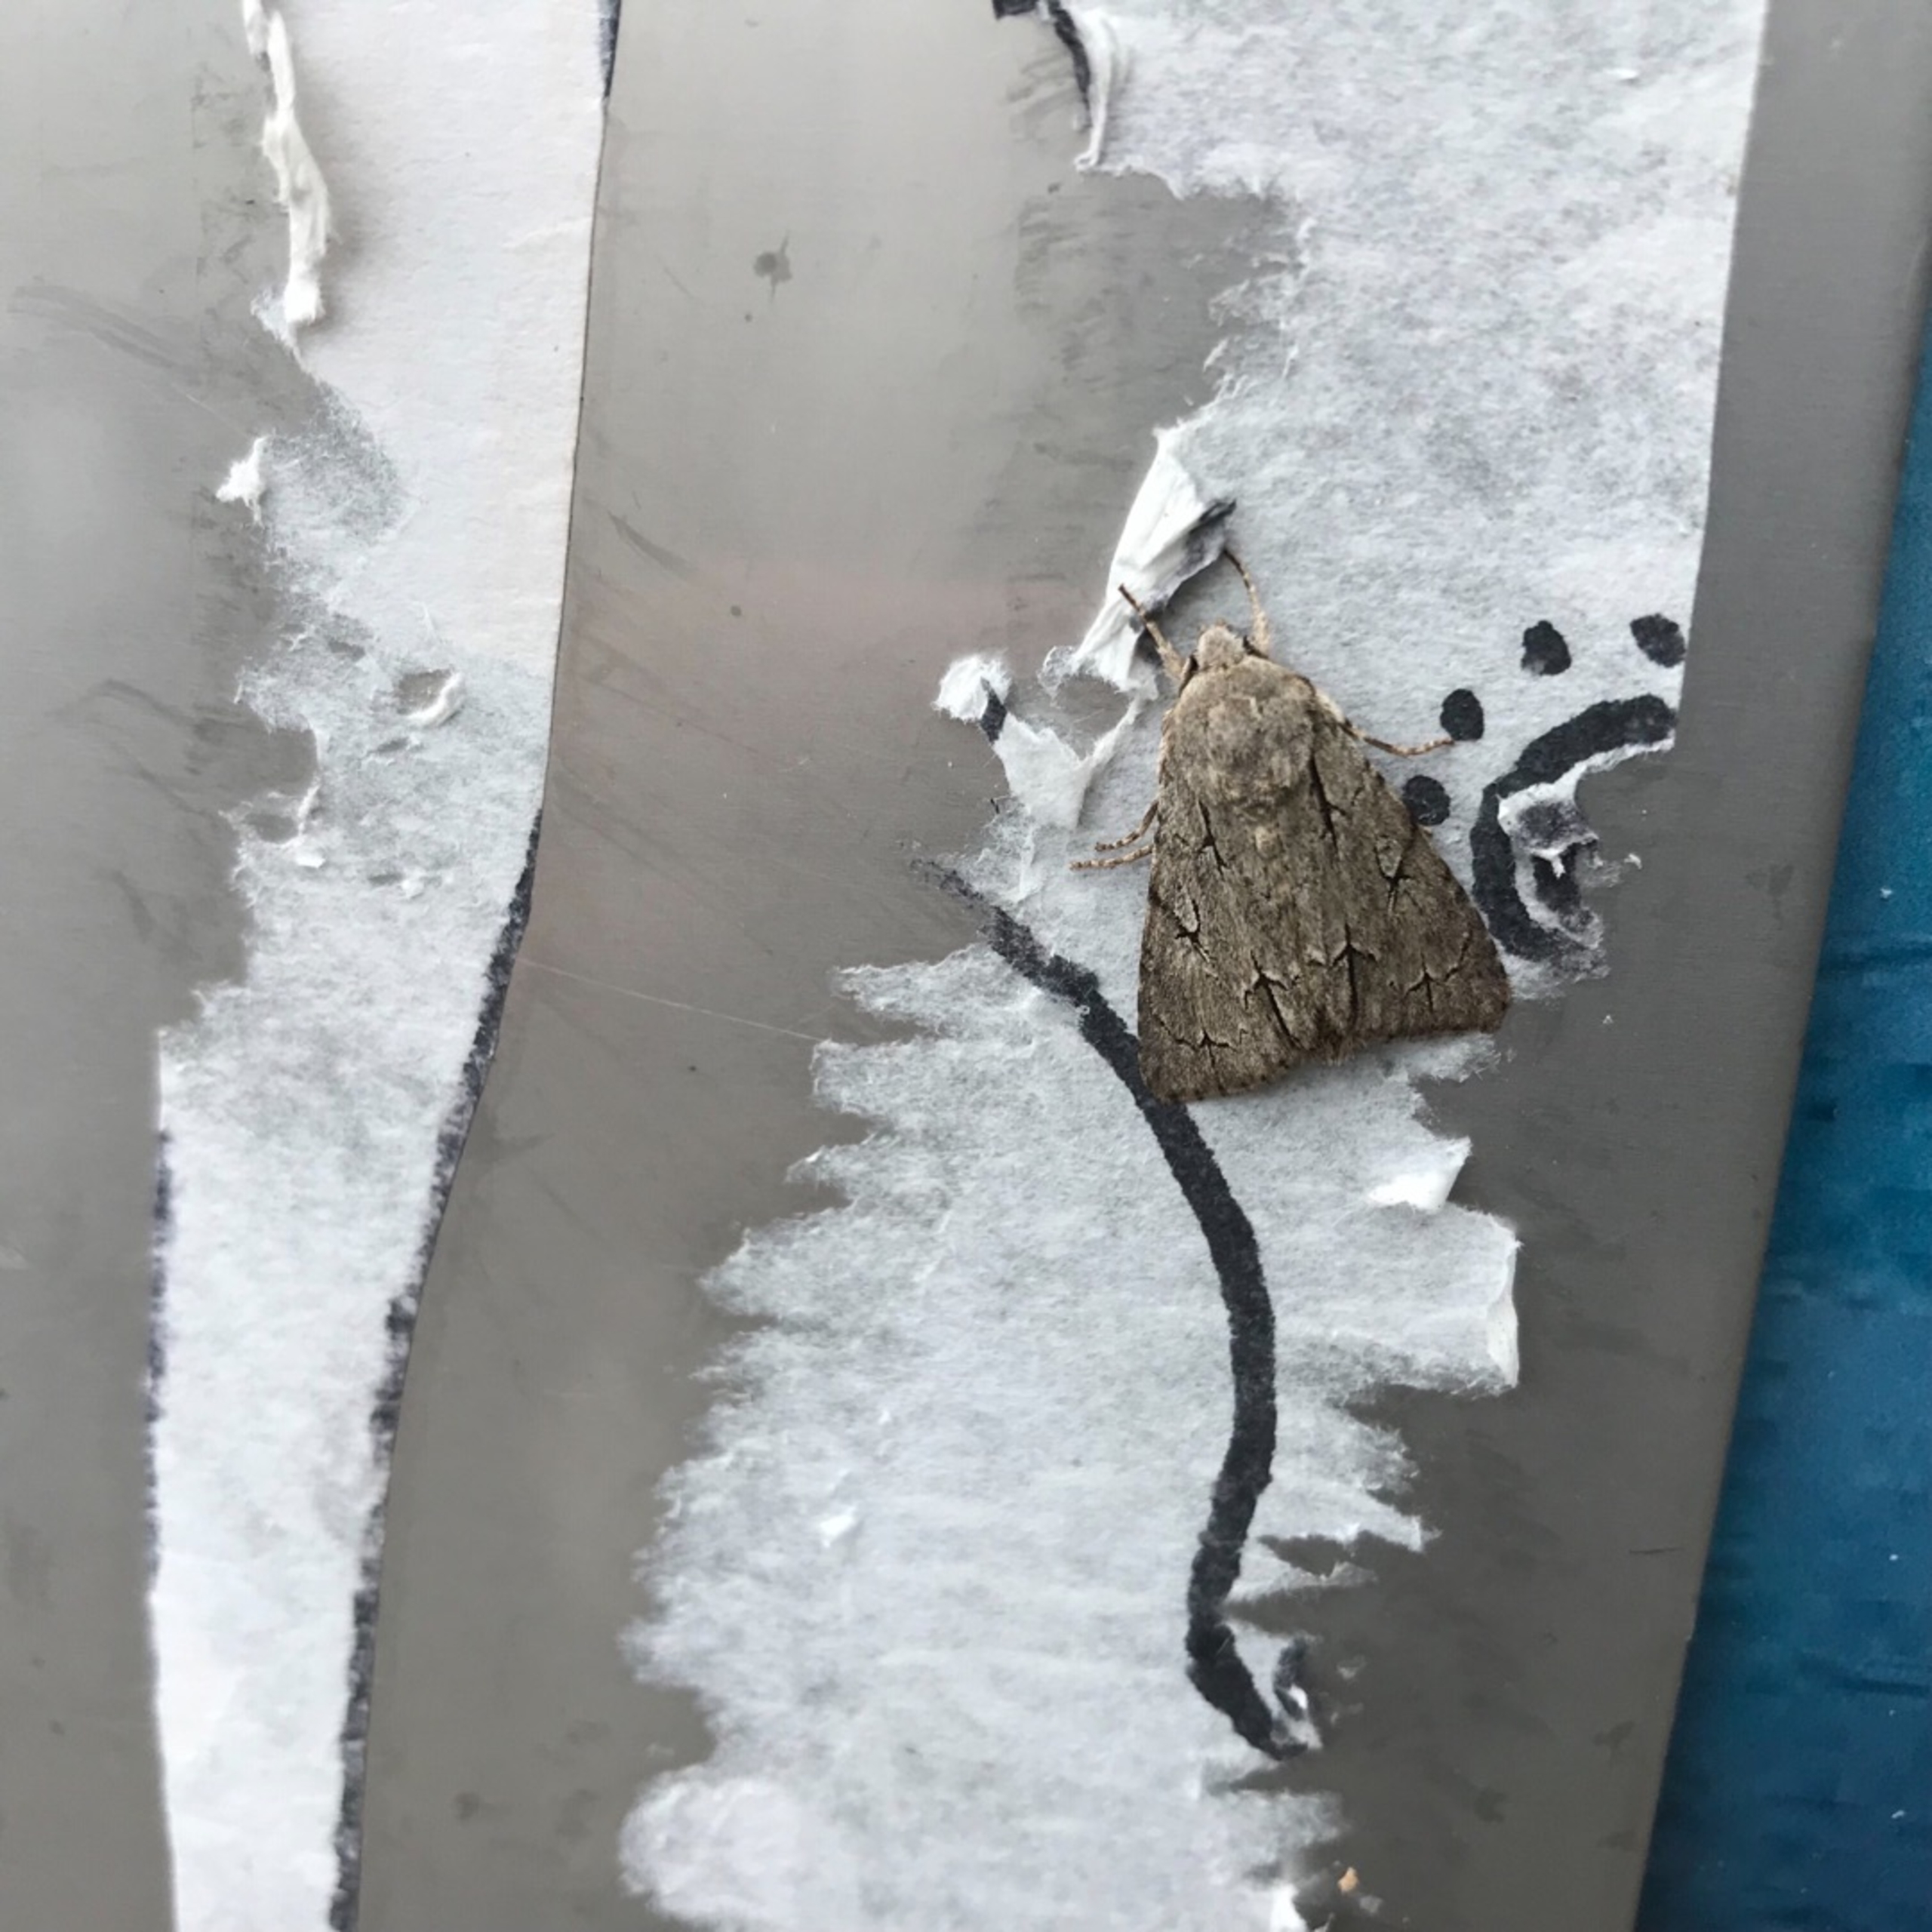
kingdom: Animalia
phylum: Arthropoda
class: Insecta
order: Lepidoptera
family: Noctuidae
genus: Acronicta
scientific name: Acronicta psi
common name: Psi-ugle
